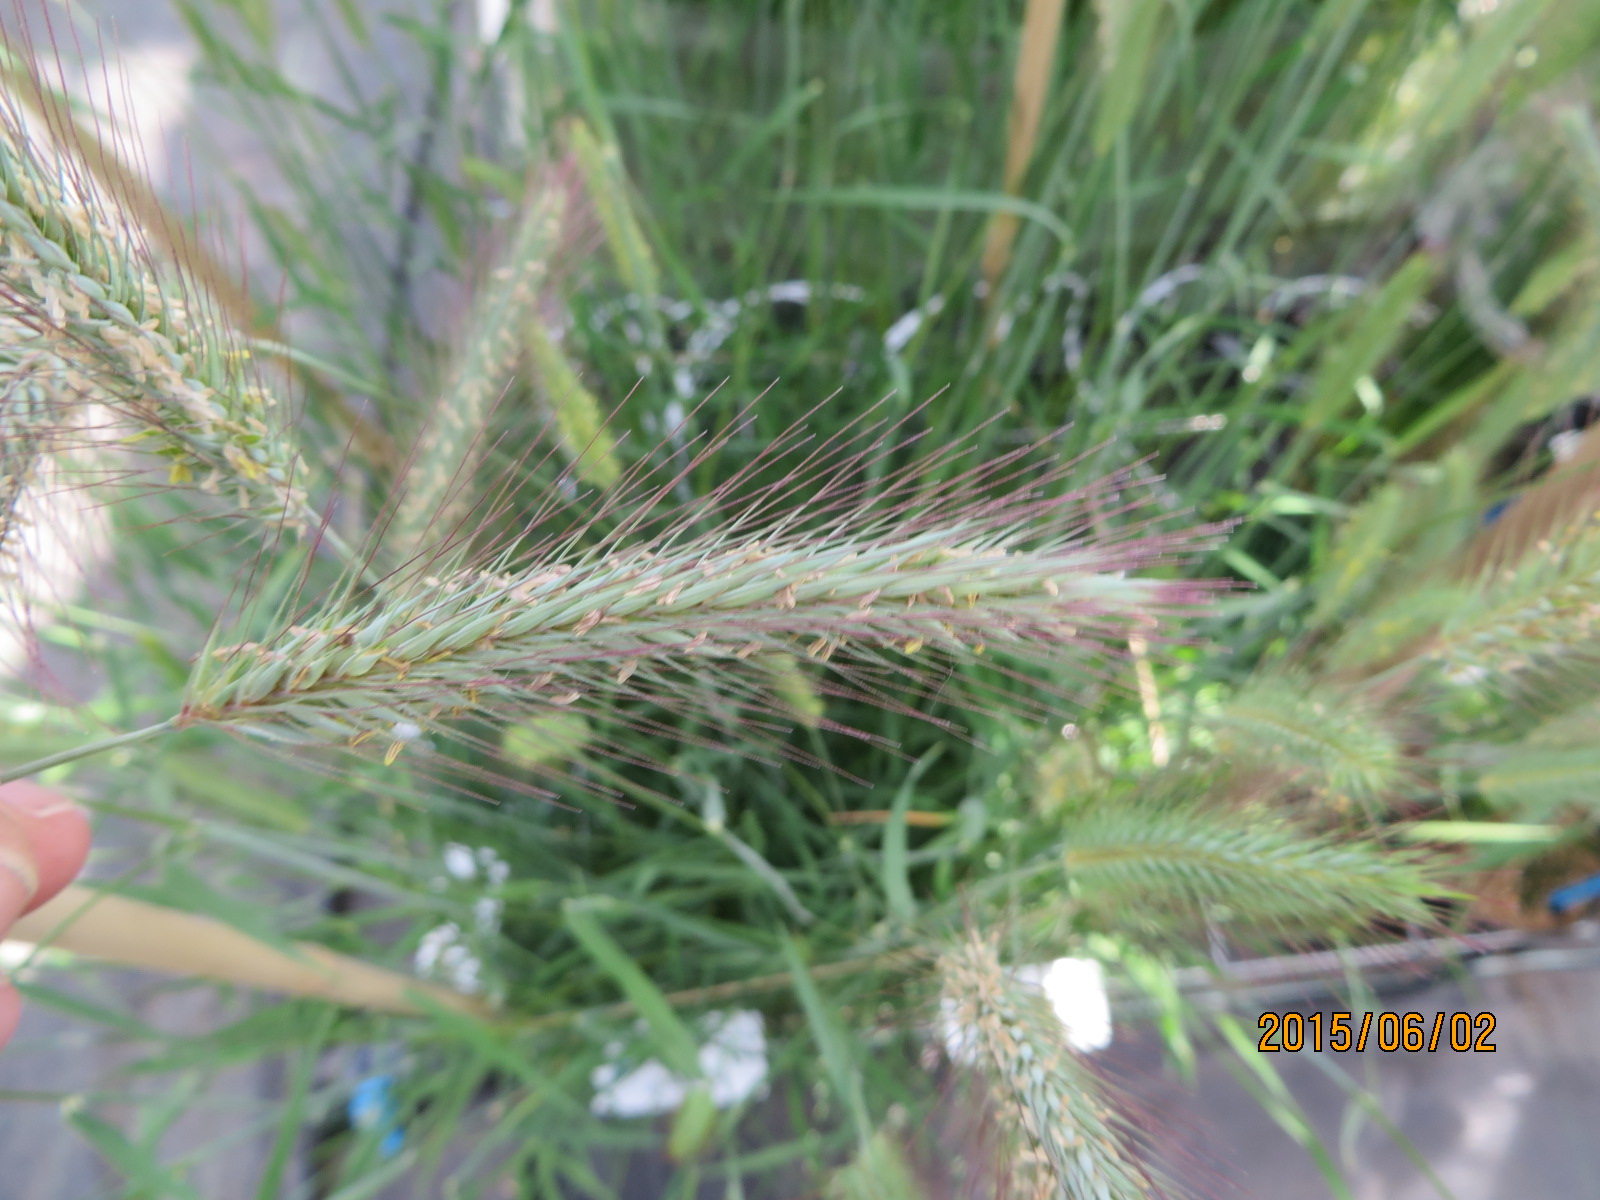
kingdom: Plantae
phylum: Tracheophyta
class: Liliopsida
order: Poales
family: Poaceae
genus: Hordeum
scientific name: Hordeum capense
